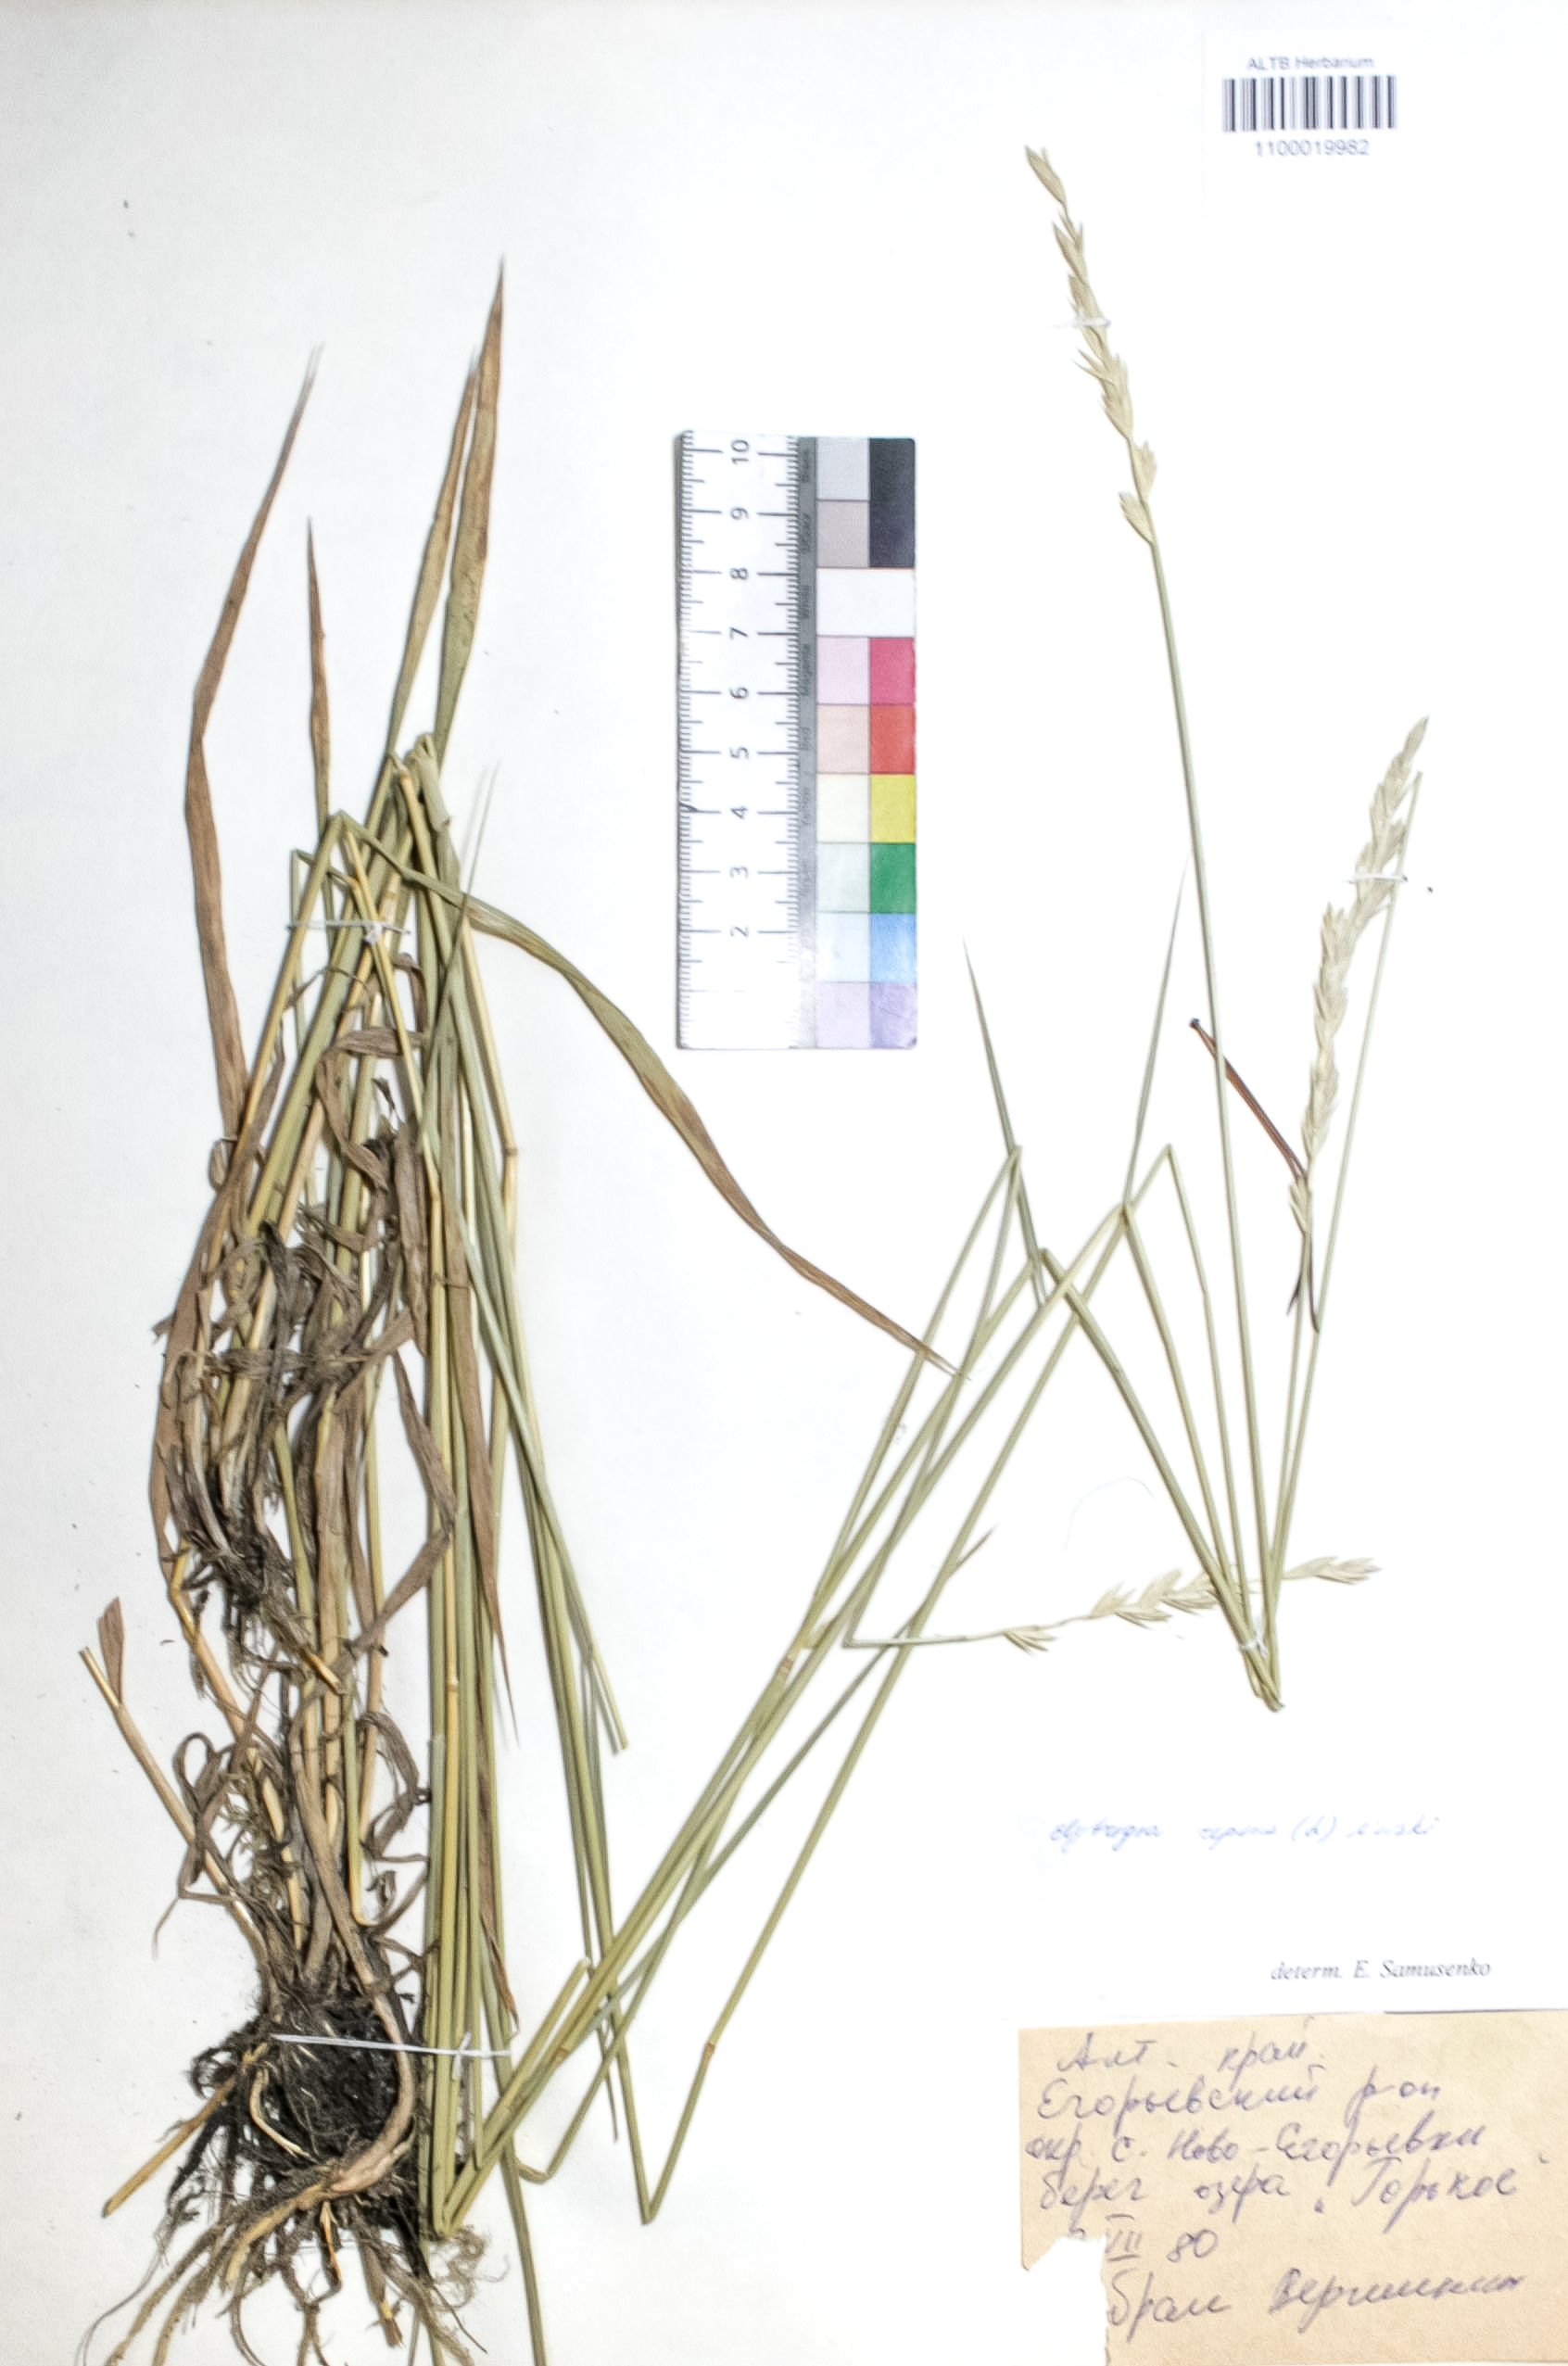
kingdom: Plantae
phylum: Tracheophyta
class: Liliopsida
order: Poales
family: Poaceae
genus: Elymus
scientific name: Elymus repens
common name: Quackgrass
